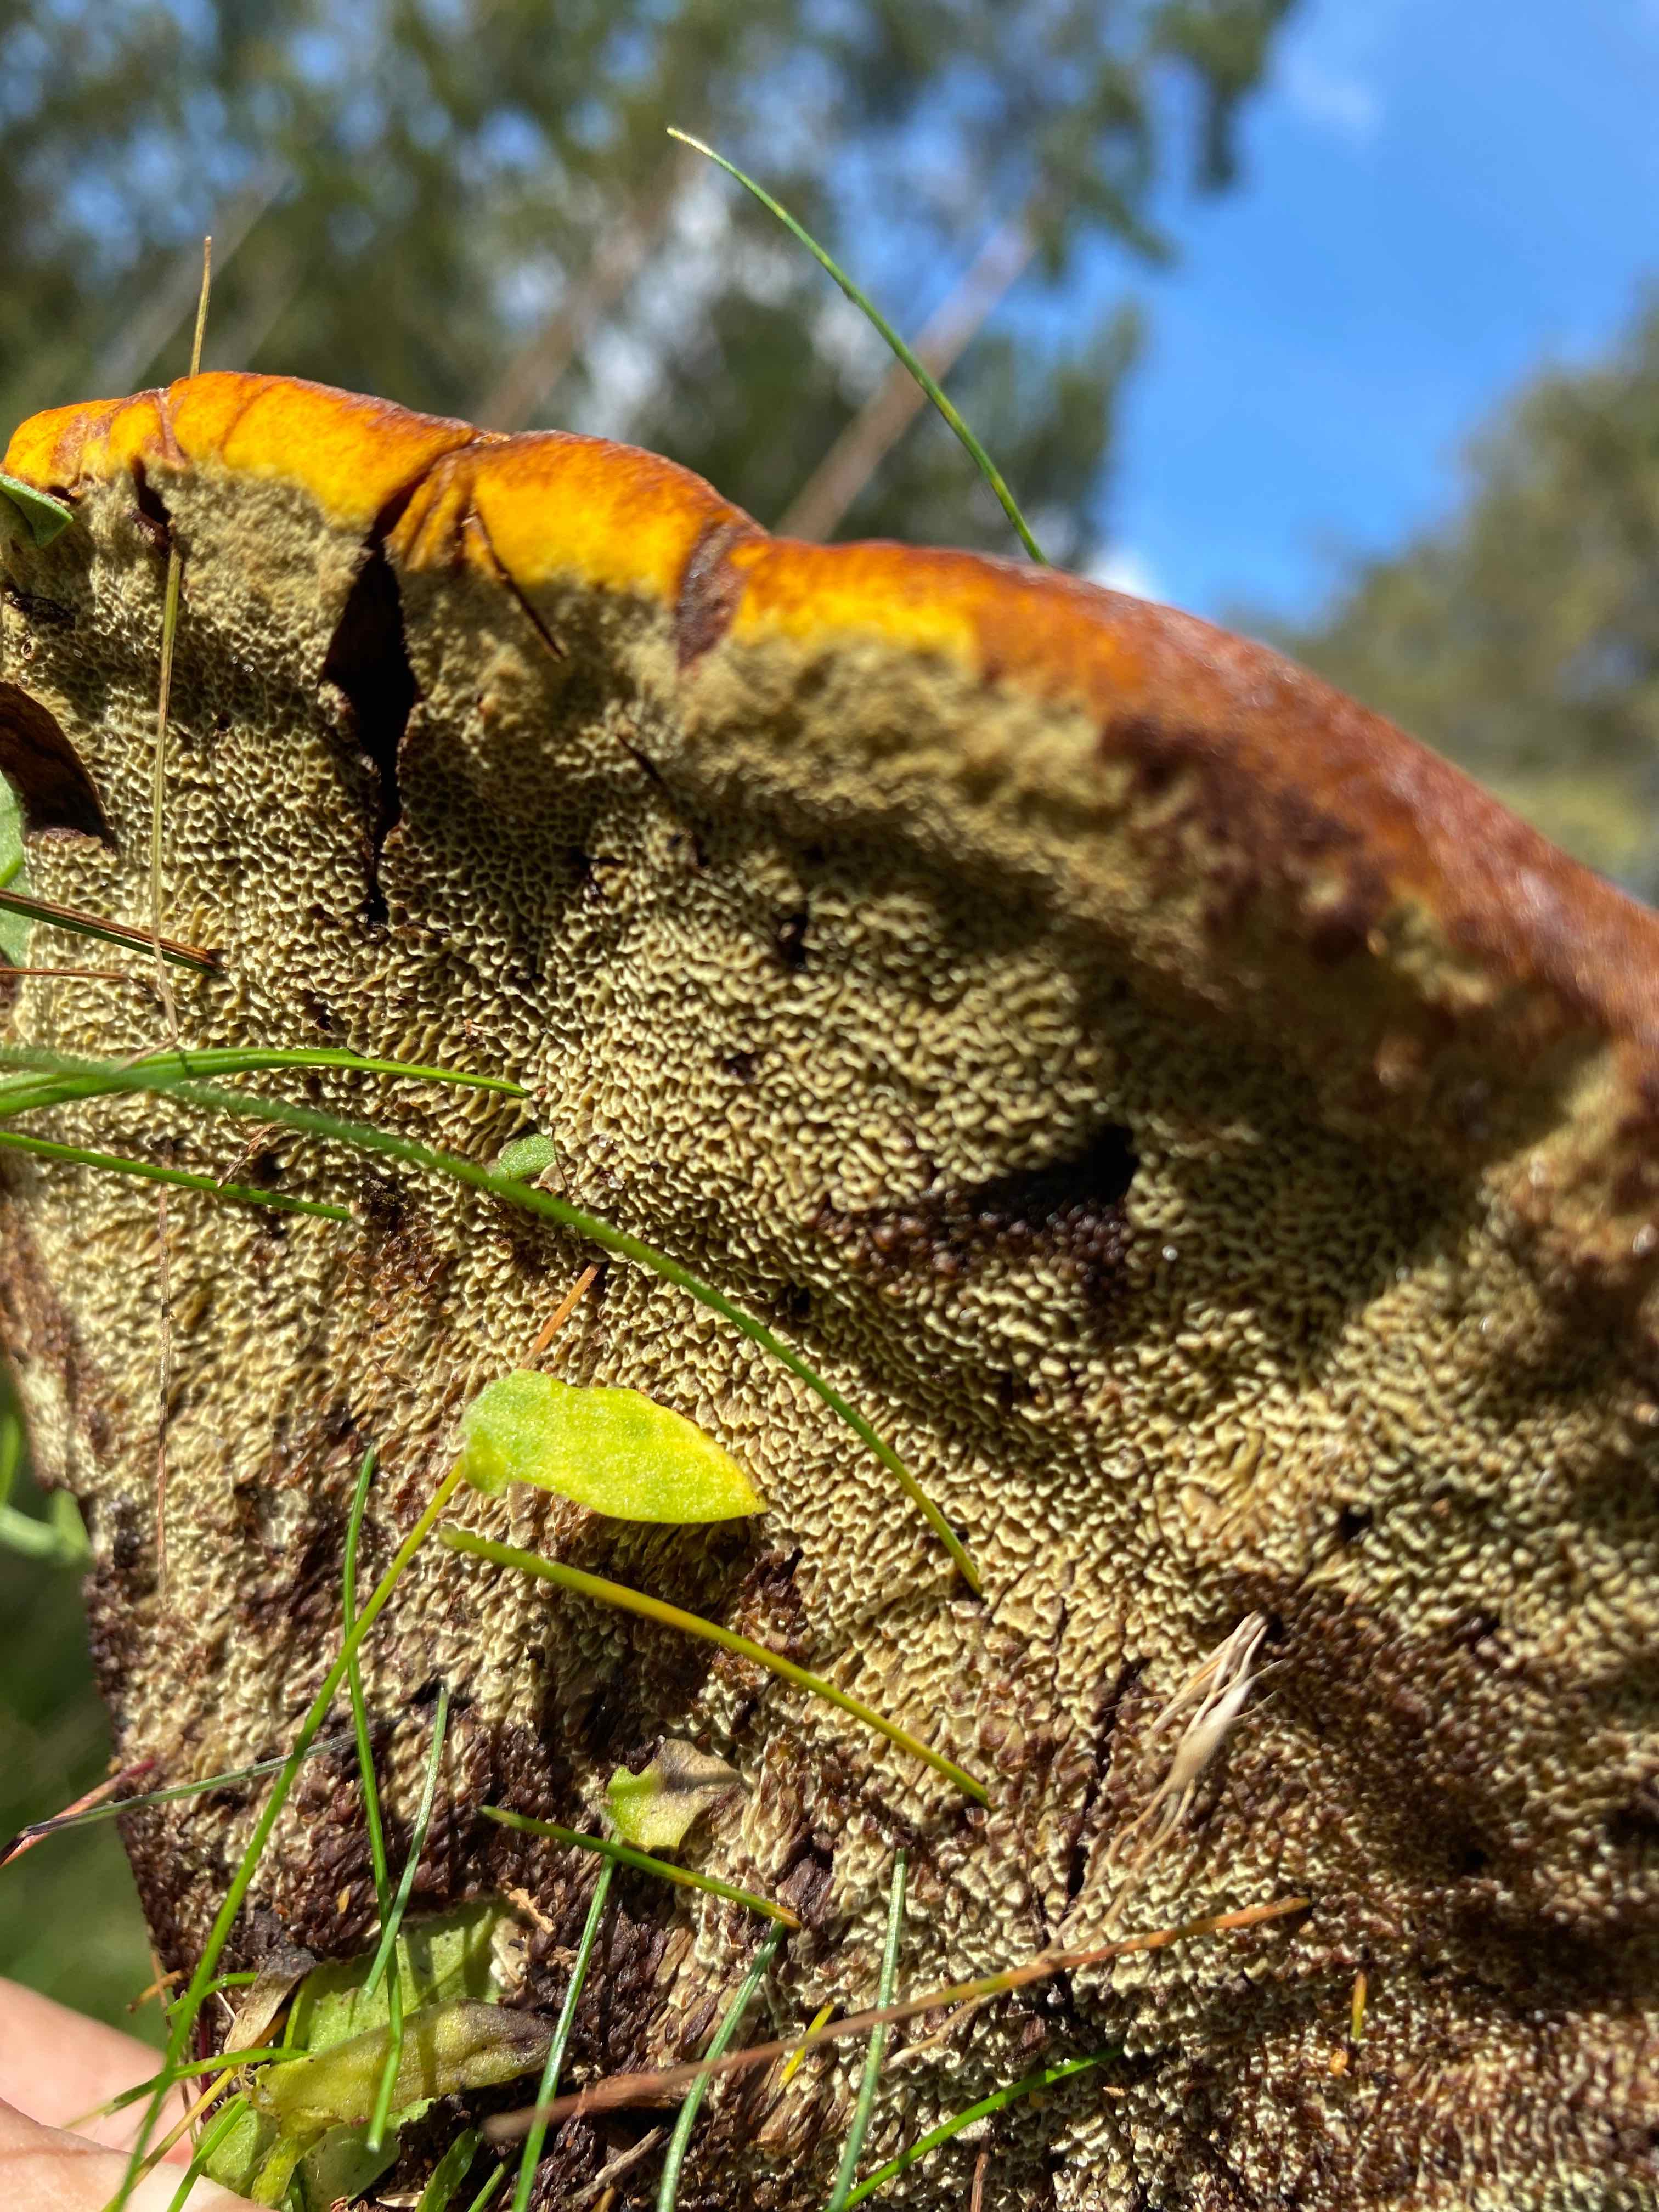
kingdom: Fungi
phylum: Basidiomycota
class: Agaricomycetes
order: Polyporales
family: Laetiporaceae
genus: Phaeolus
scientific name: Phaeolus schweinitzii
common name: brunporesvamp
